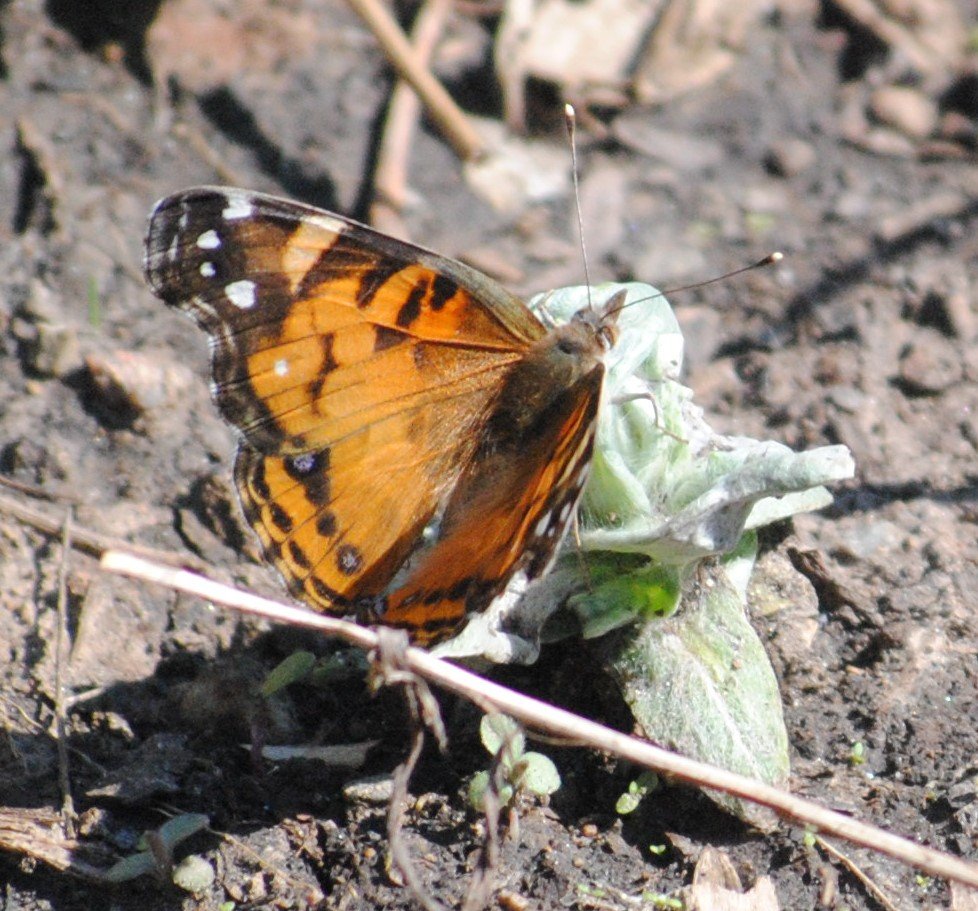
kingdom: Animalia
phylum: Arthropoda
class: Insecta
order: Lepidoptera
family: Nymphalidae
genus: Vanessa
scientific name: Vanessa virginiensis
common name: American Lady
